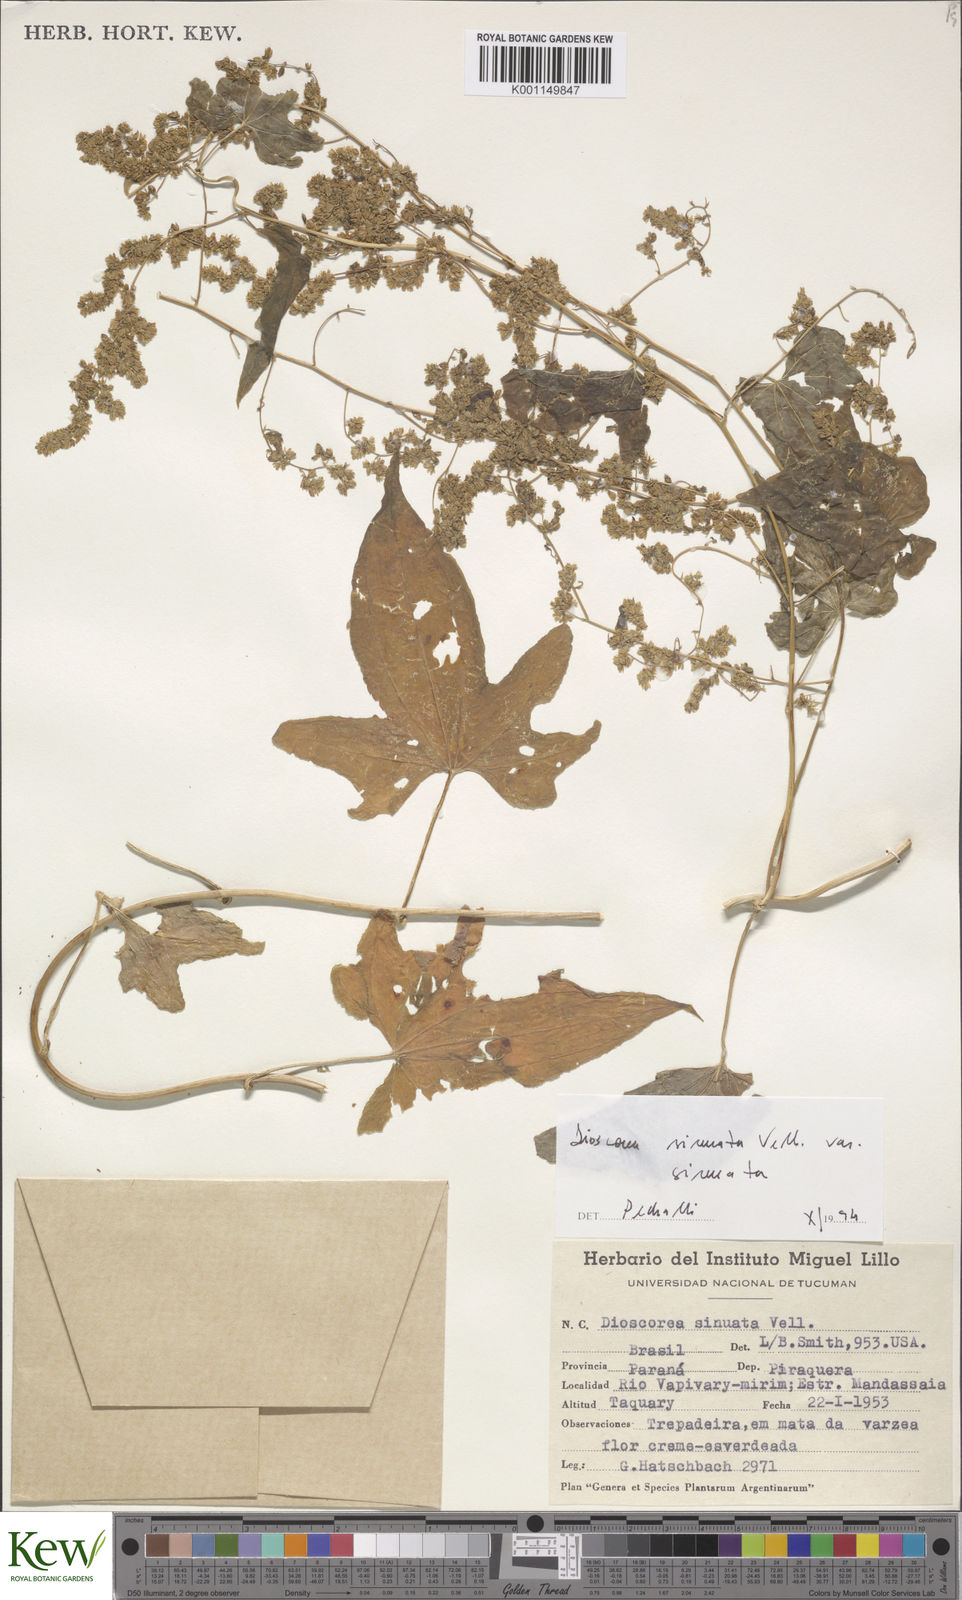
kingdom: Plantae
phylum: Tracheophyta
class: Liliopsida
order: Dioscoreales
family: Dioscoreaceae
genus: Dioscorea
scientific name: Dioscorea sinuata
